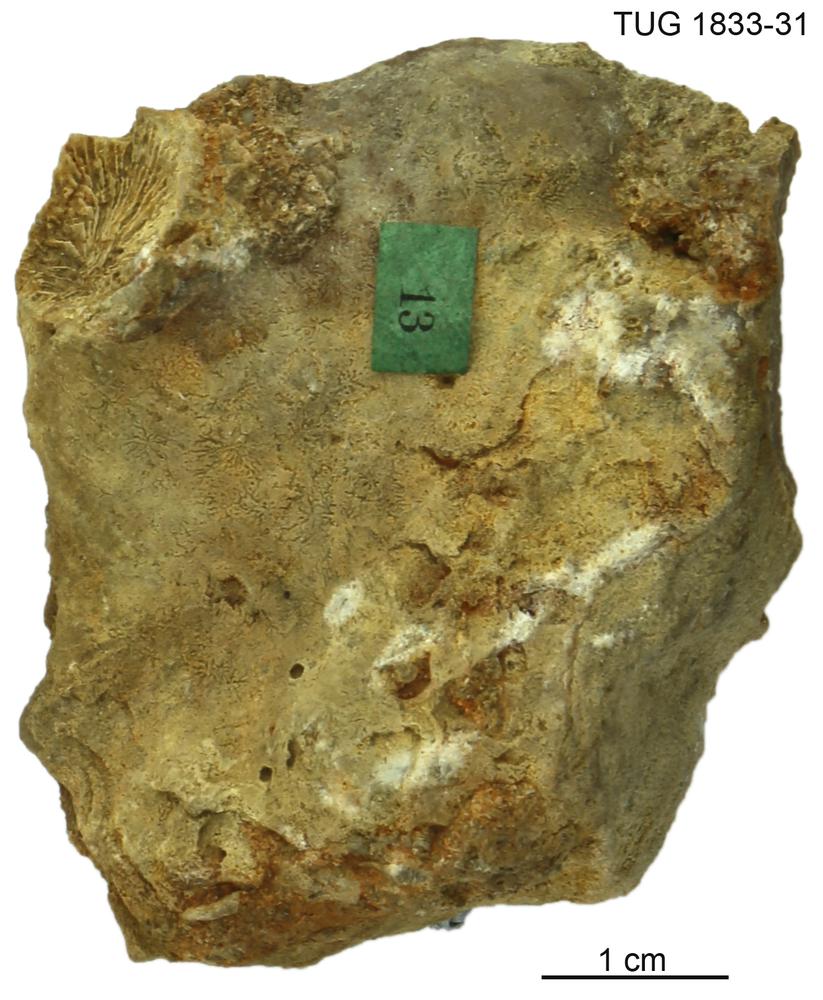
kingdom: Animalia
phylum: Porifera
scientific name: Porifera
